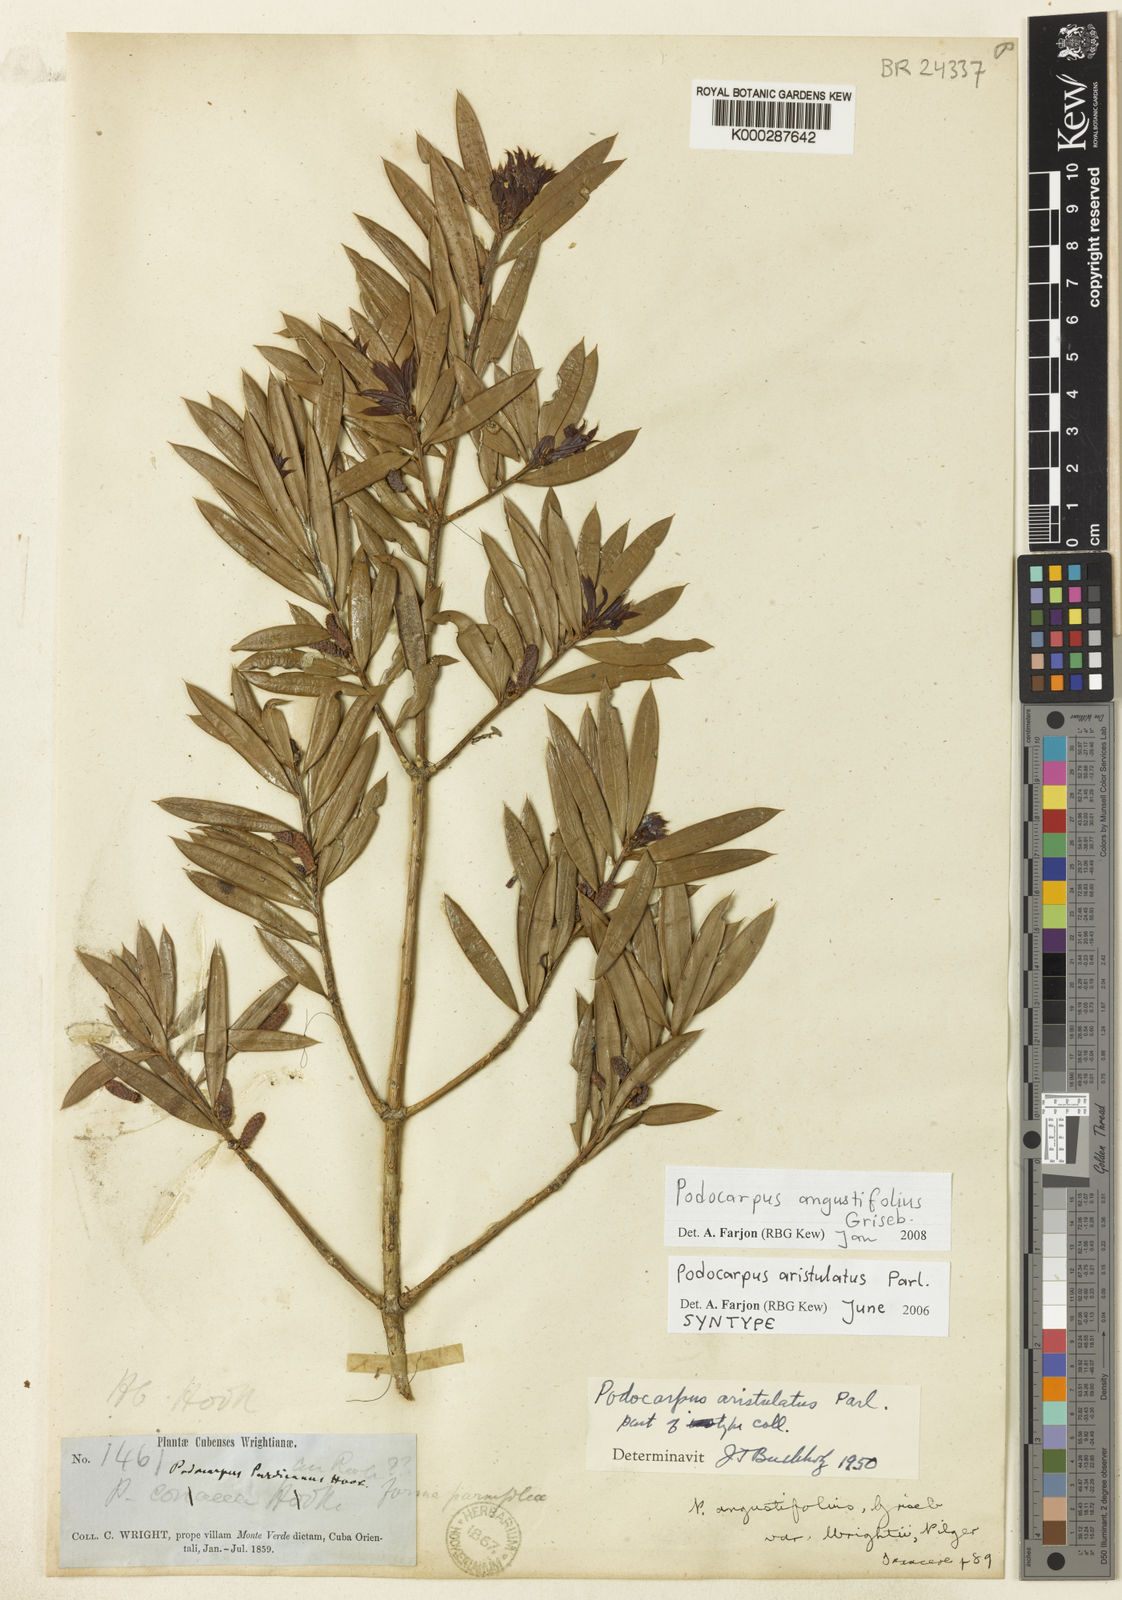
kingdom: Plantae
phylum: Tracheophyta
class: Pinopsida
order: Pinales
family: Podocarpaceae
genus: Podocarpus
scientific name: Podocarpus angustifolius
